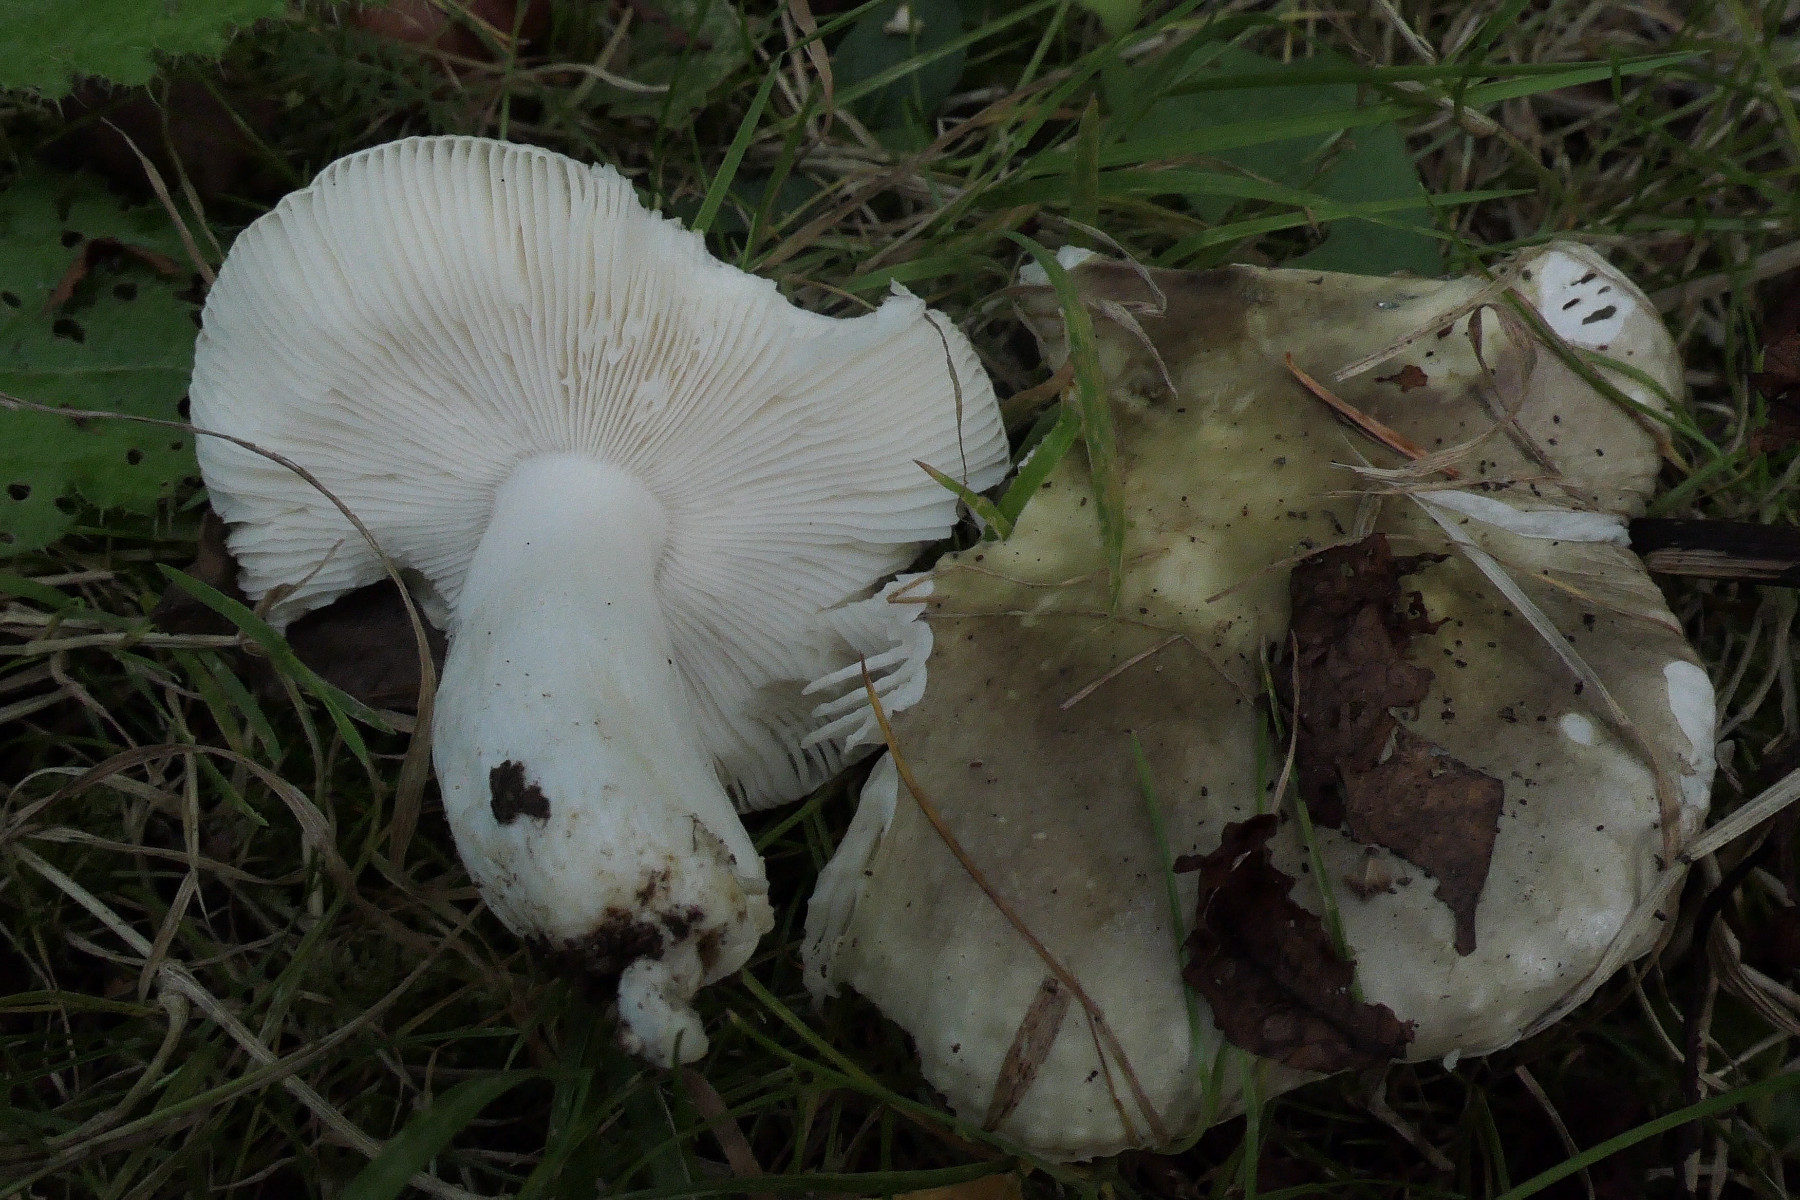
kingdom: Fungi
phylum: Basidiomycota
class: Agaricomycetes
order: Russulales
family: Russulaceae
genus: Russula
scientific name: Russula
